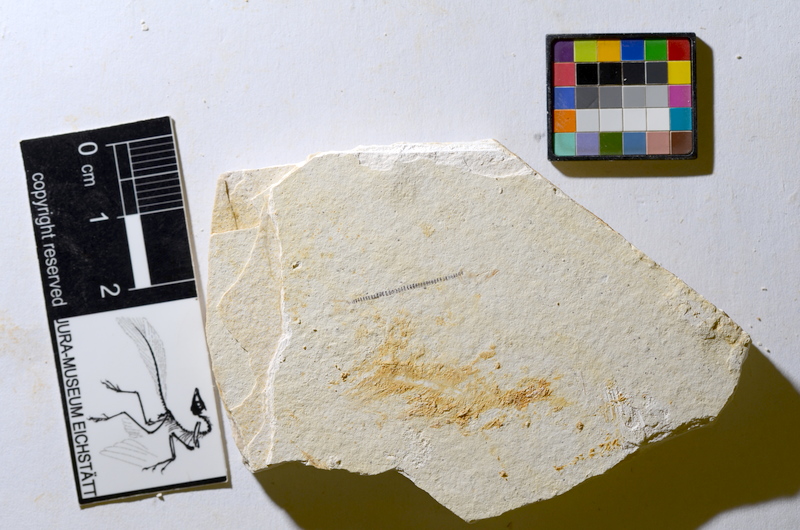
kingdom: Animalia
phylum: Chordata
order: Salmoniformes
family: Orthogonikleithridae
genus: Orthogonikleithrus
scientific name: Orthogonikleithrus hoelli
